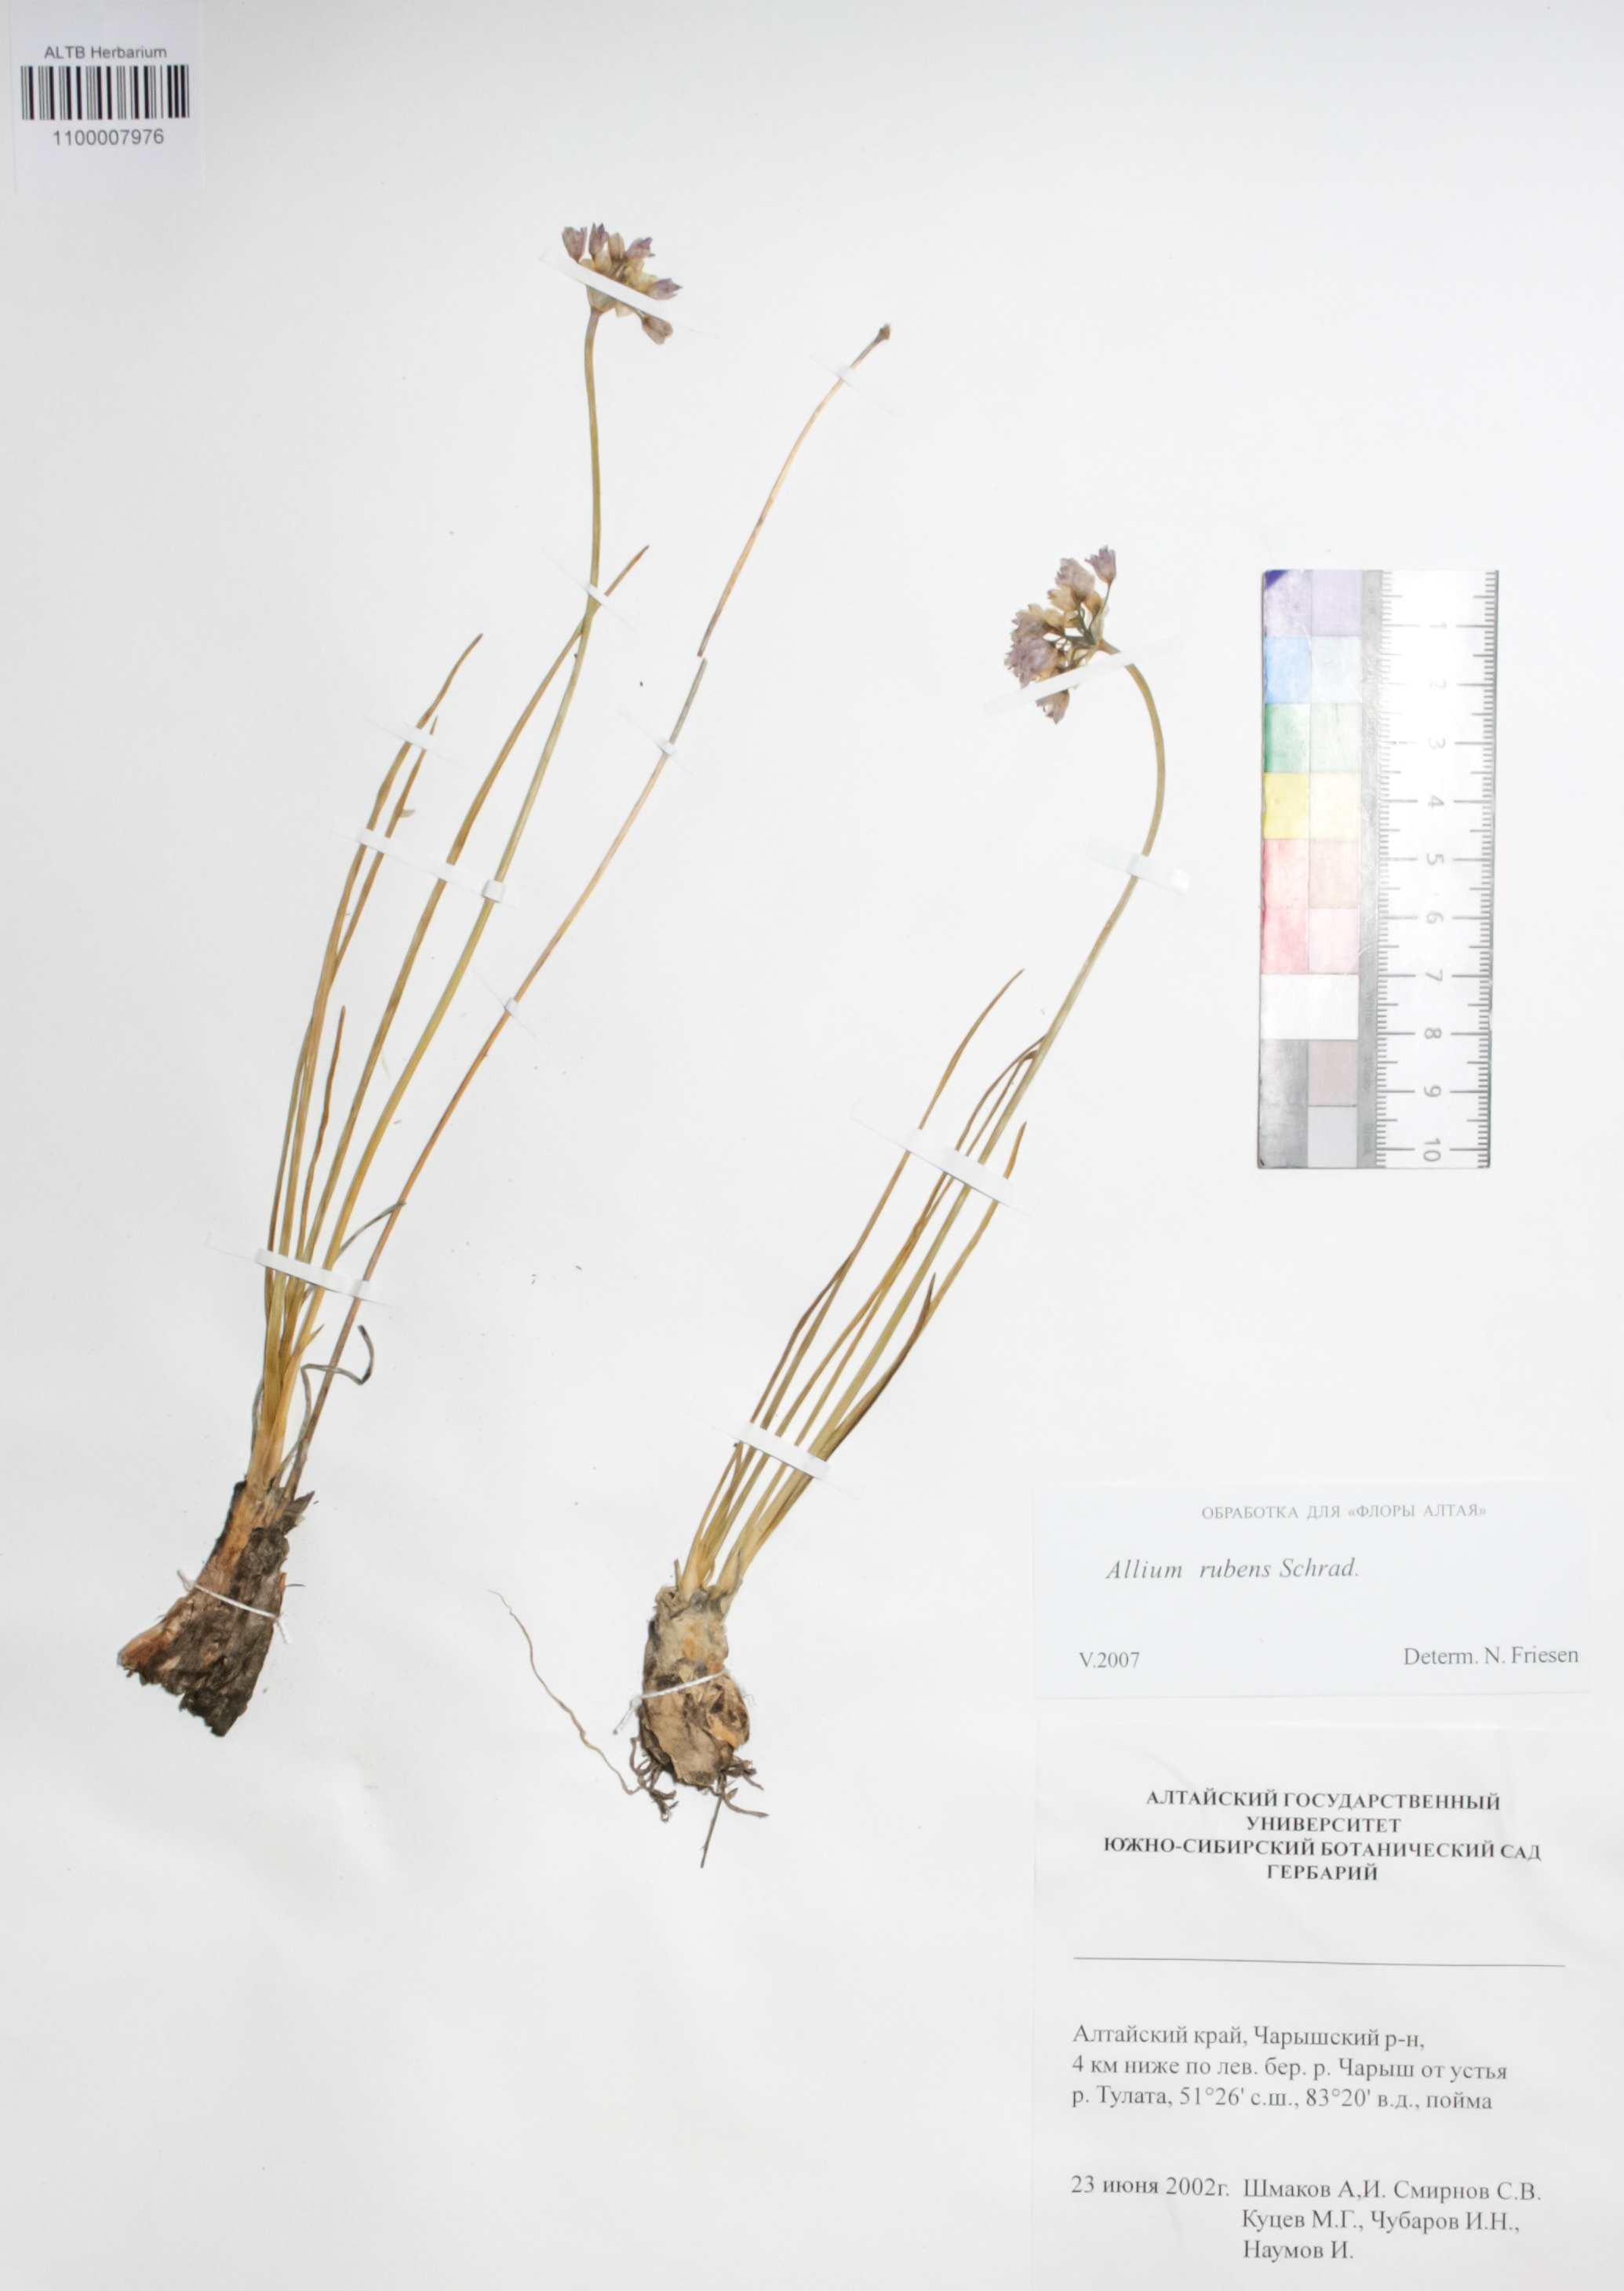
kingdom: Plantae
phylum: Tracheophyta
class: Liliopsida
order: Asparagales
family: Amaryllidaceae
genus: Allium
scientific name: Allium rubens
